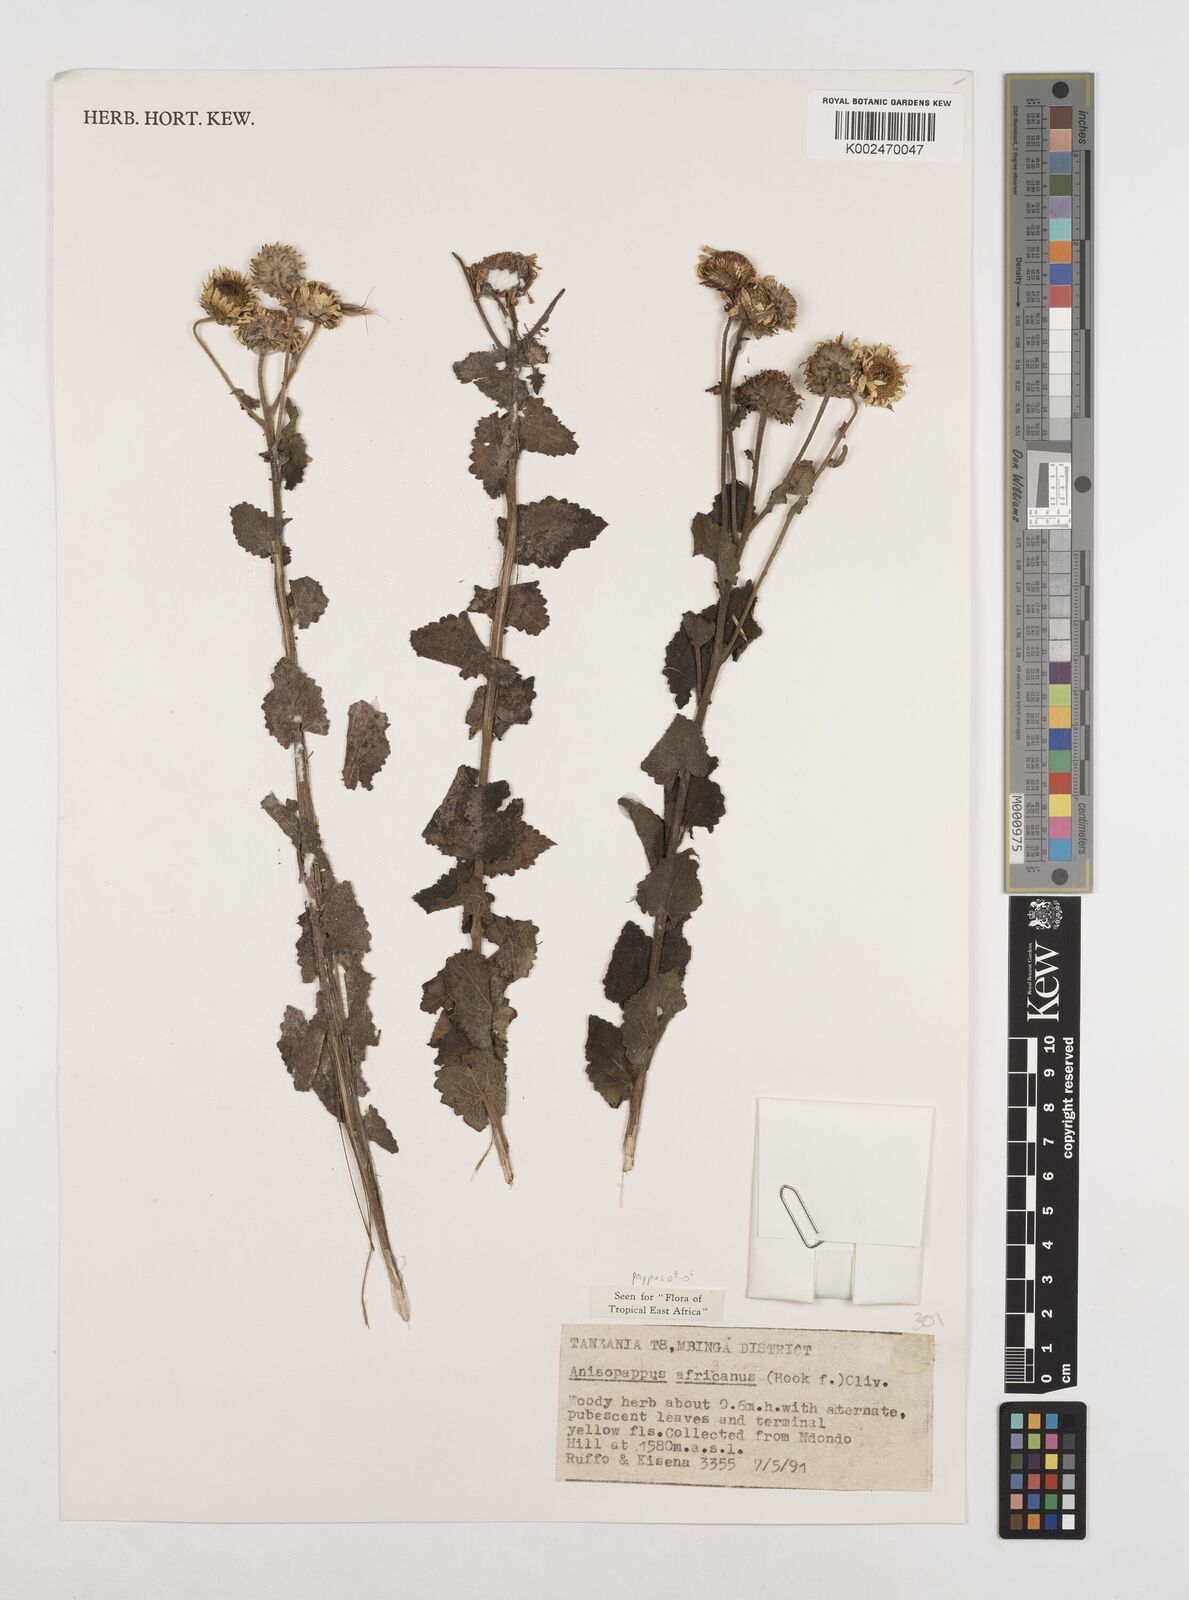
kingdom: Plantae
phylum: Tracheophyta
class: Magnoliopsida
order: Asterales
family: Asteraceae
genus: Anisopappus
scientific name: Anisopappus buchwaldii
